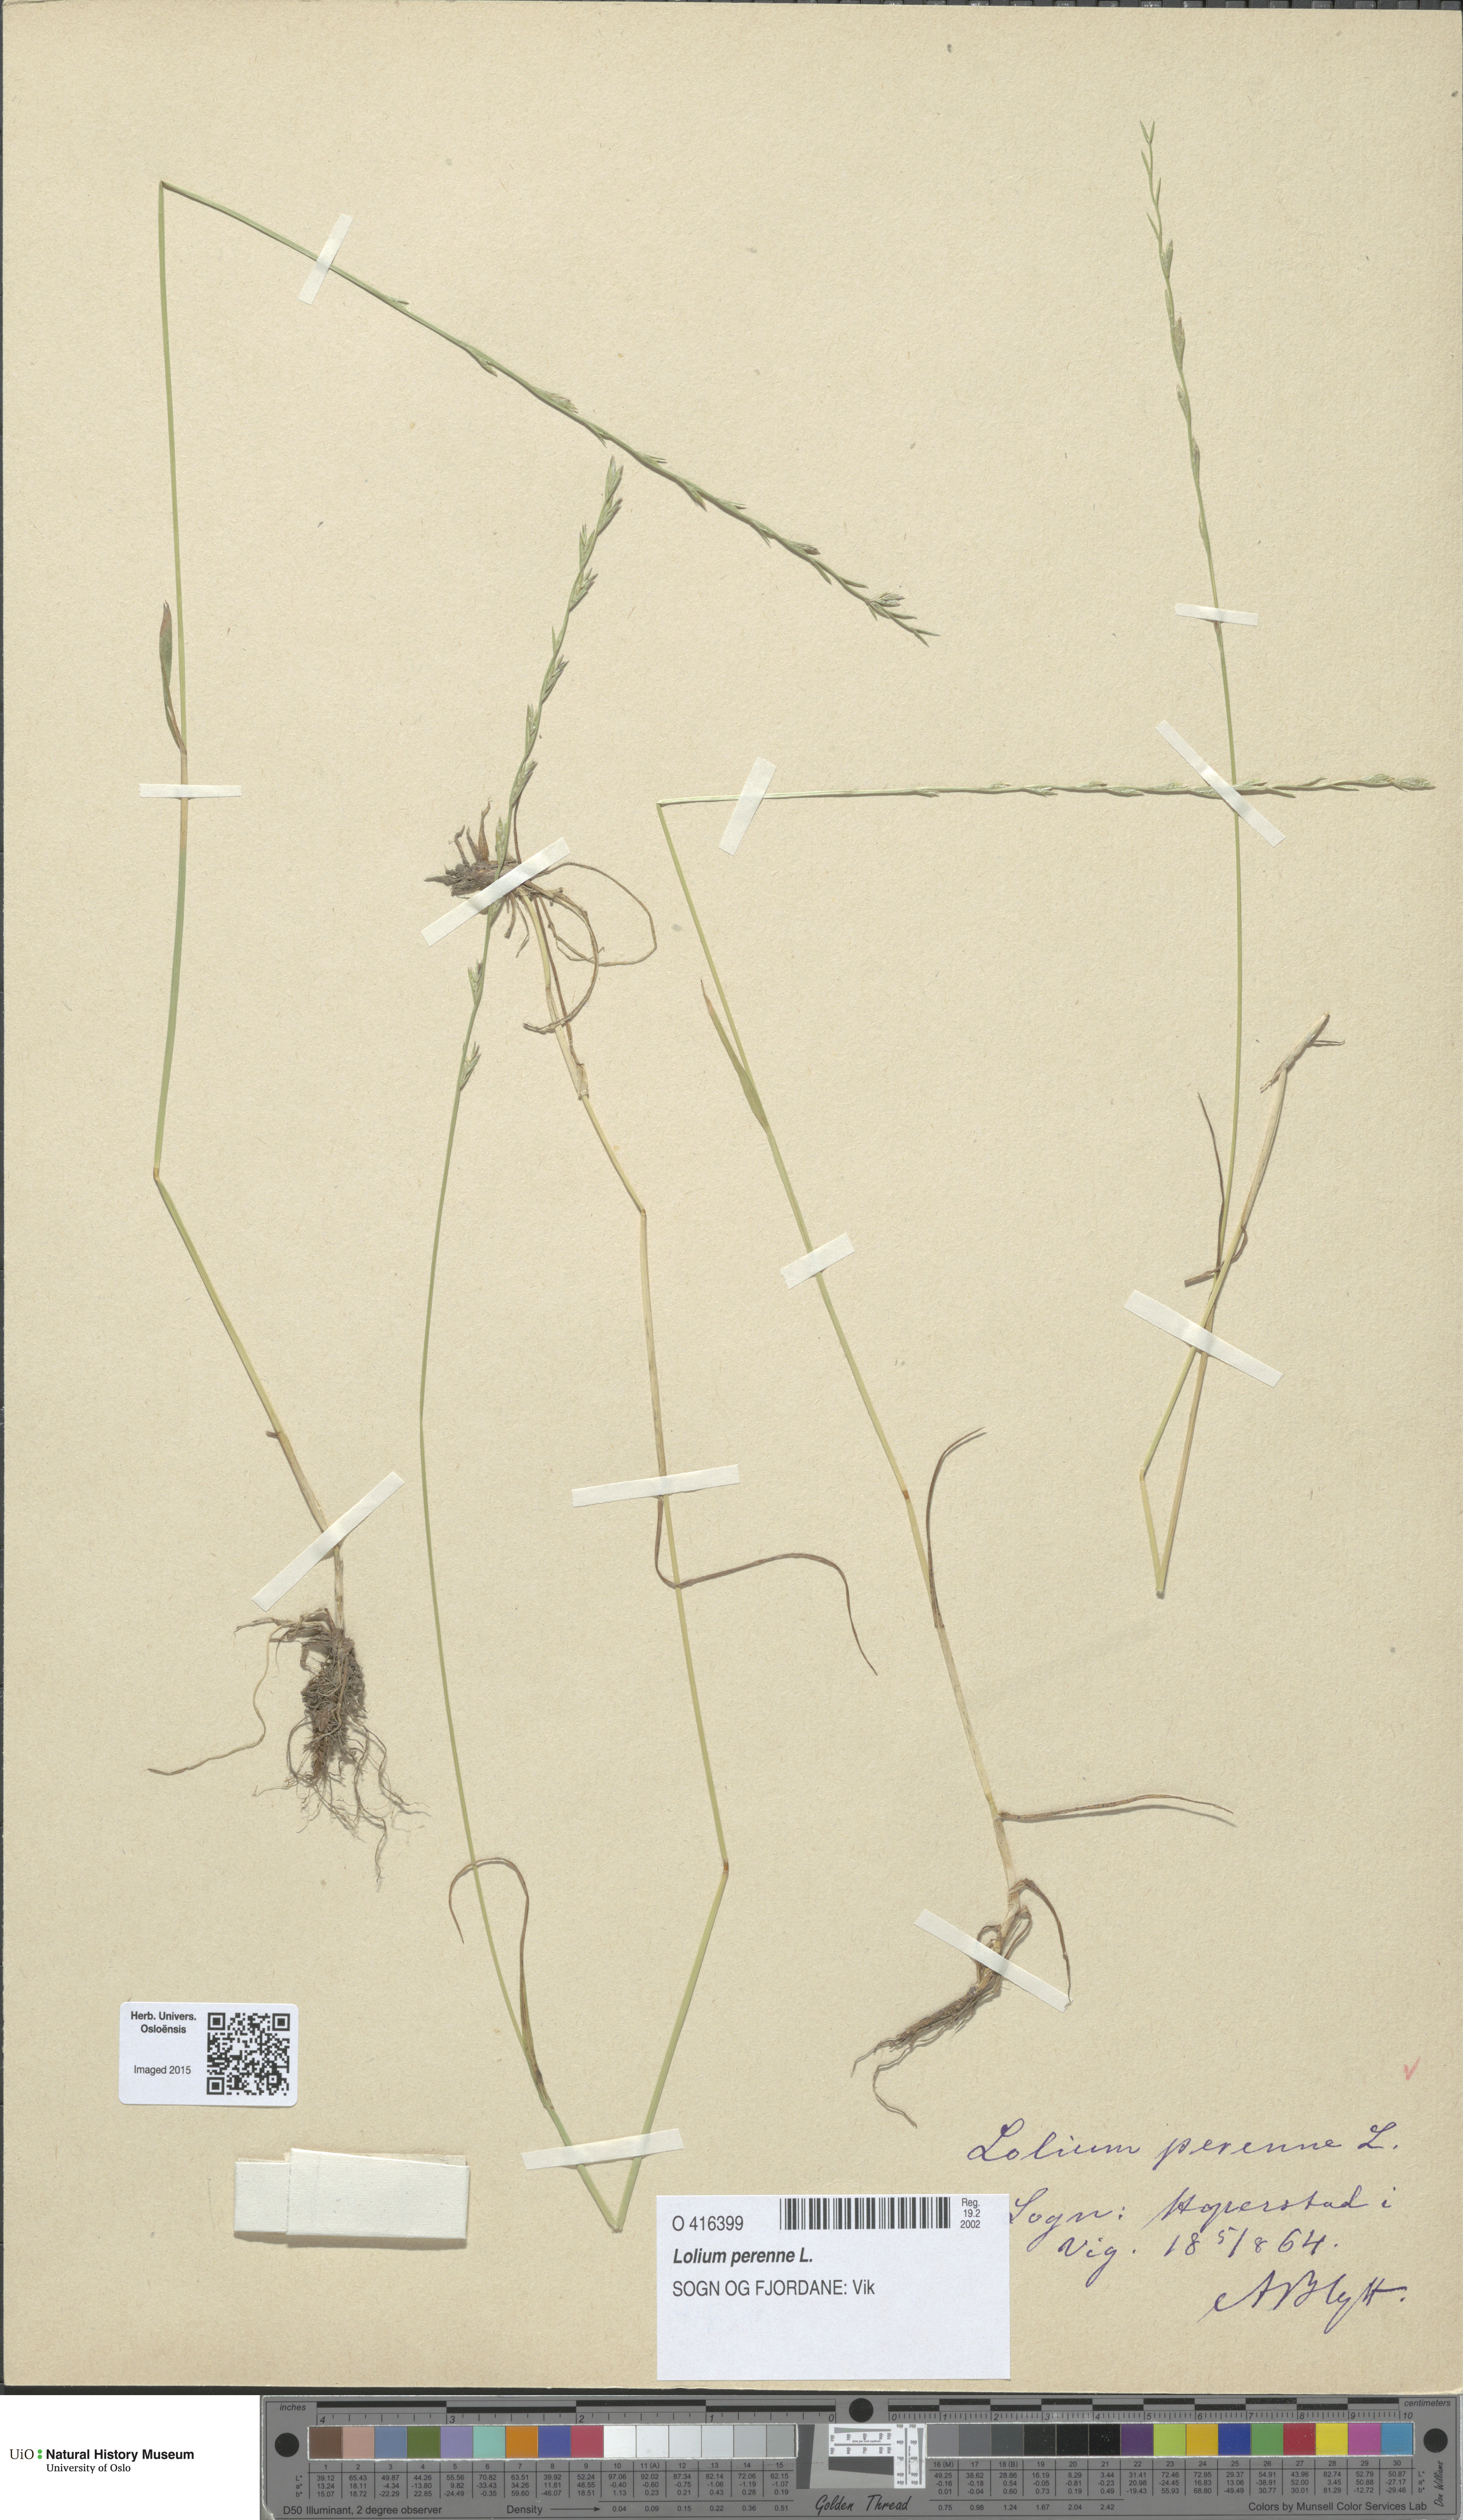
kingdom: Plantae
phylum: Tracheophyta
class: Liliopsida
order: Poales
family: Poaceae
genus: Lolium
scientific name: Lolium perenne
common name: Perennial ryegrass
